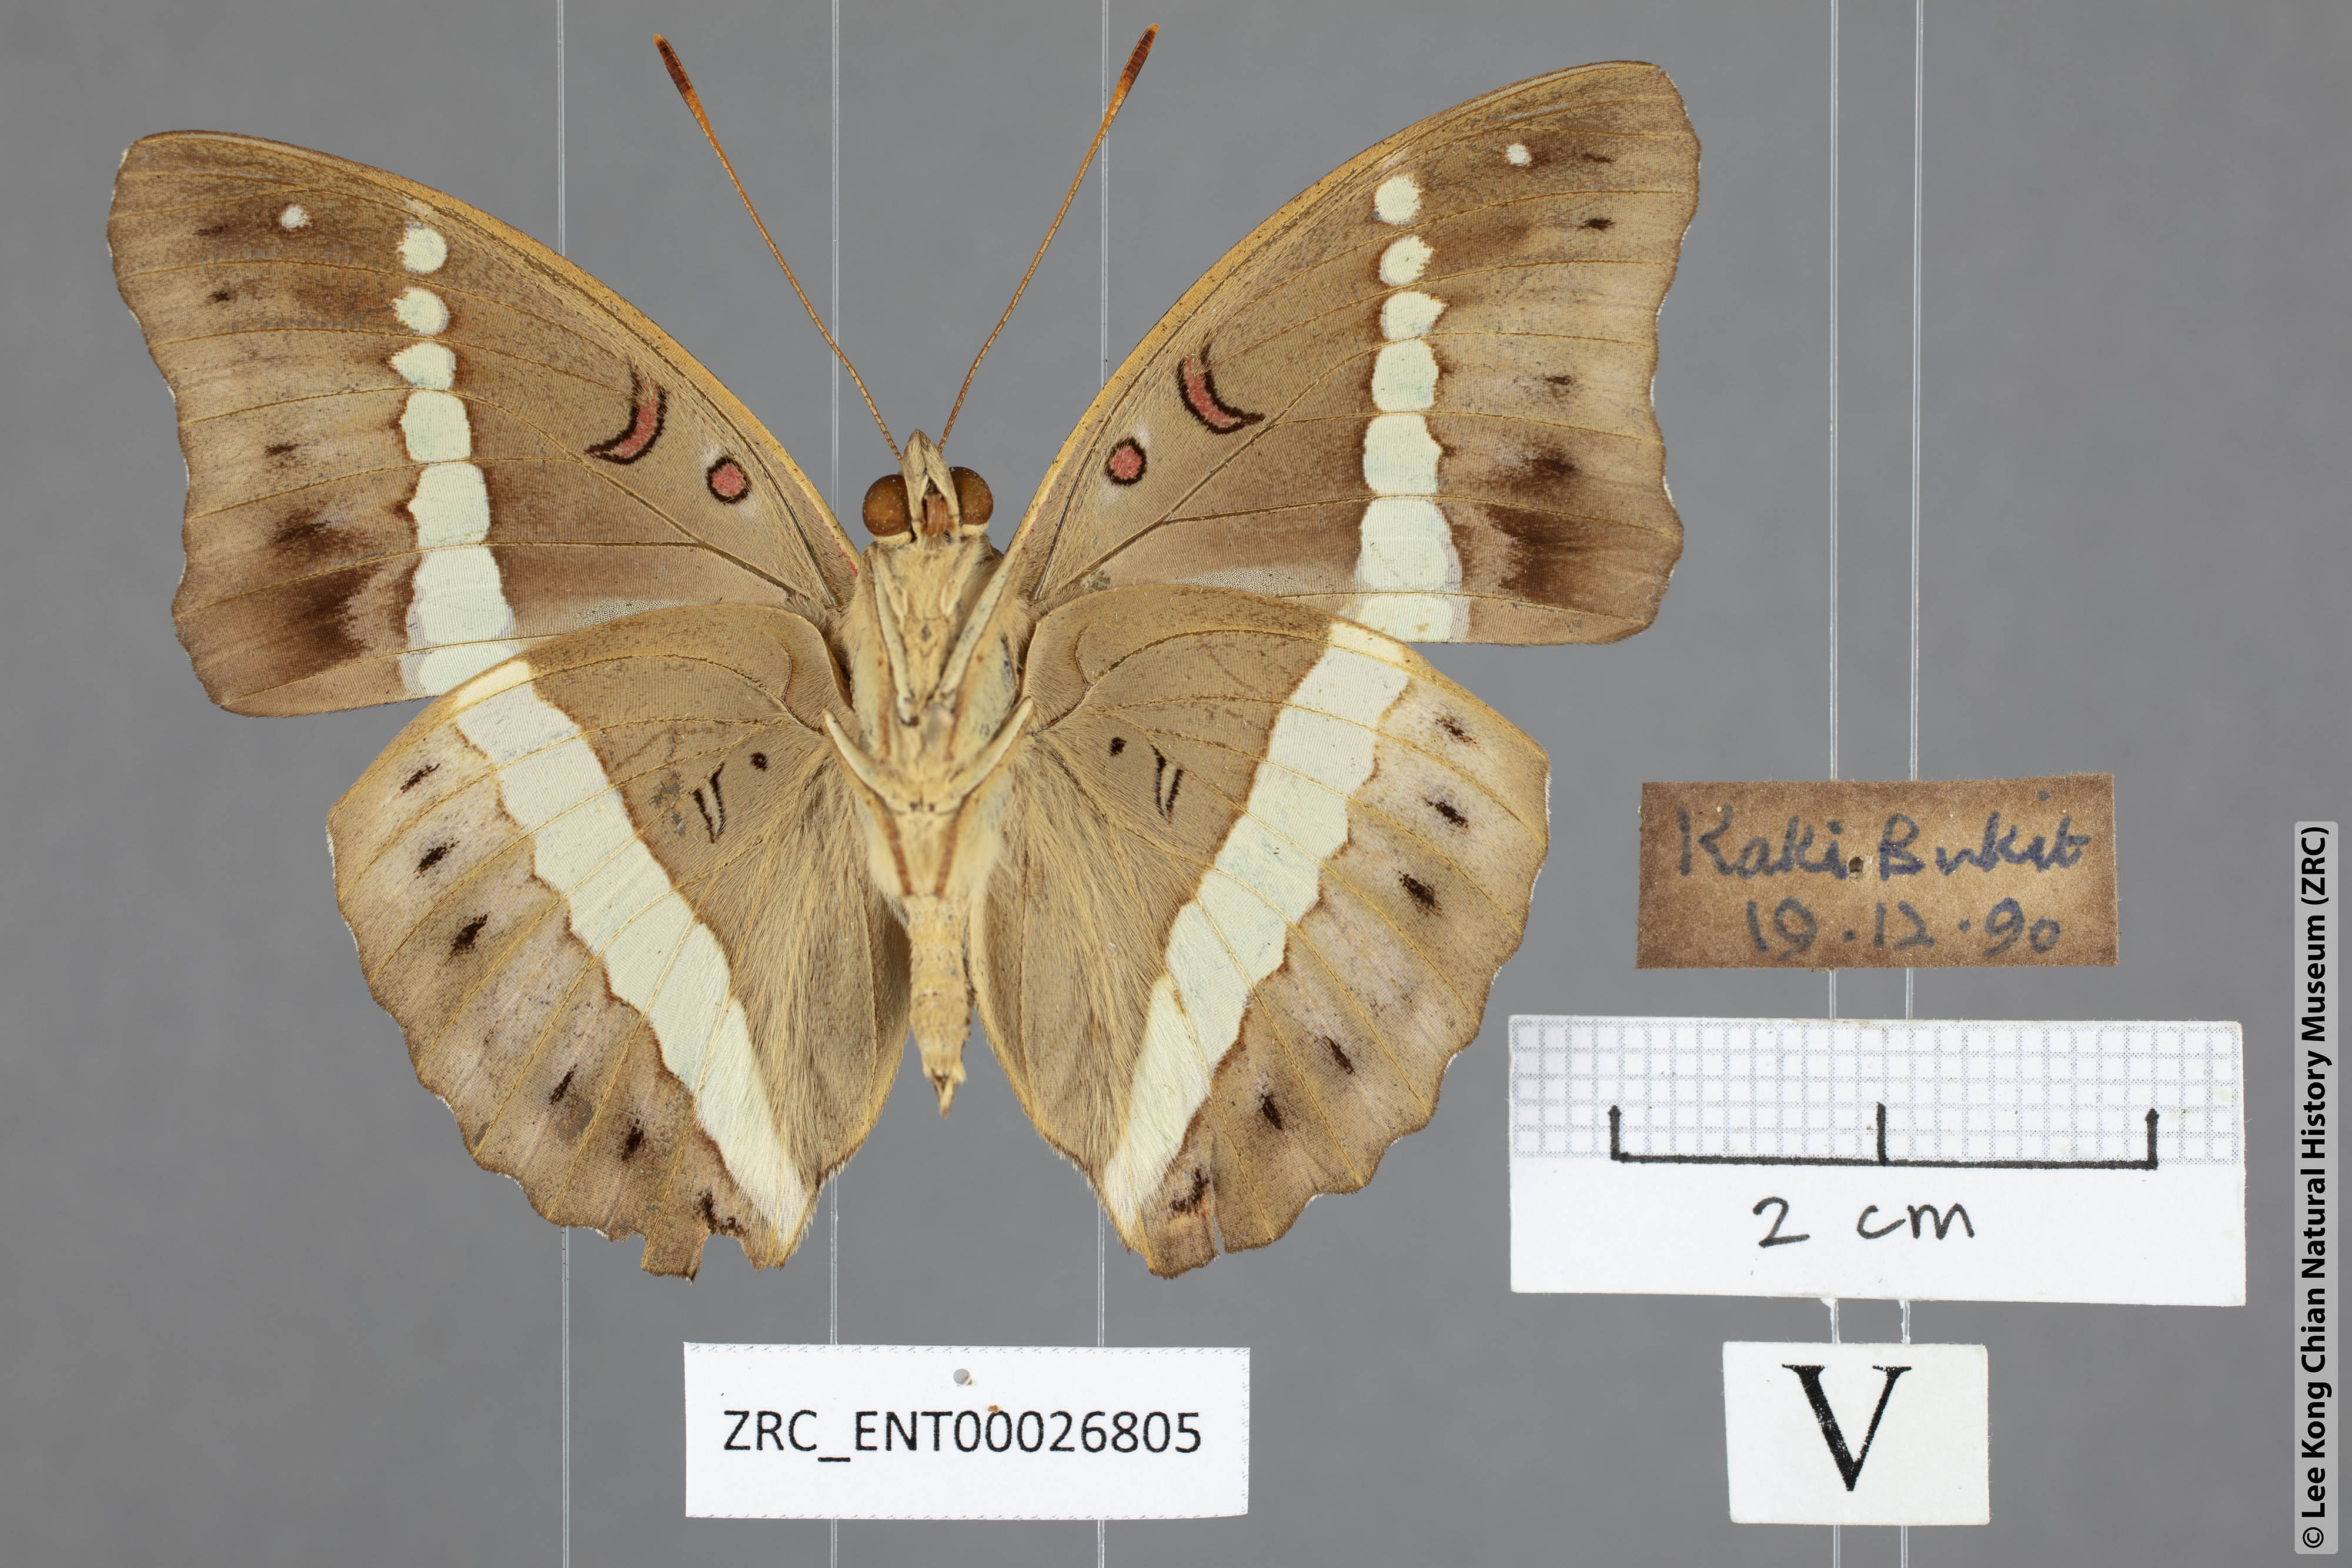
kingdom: Animalia
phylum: Arthropoda
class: Insecta
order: Lepidoptera
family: Nymphalidae
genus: Euthalia
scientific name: Euthalia Bassarona recta
